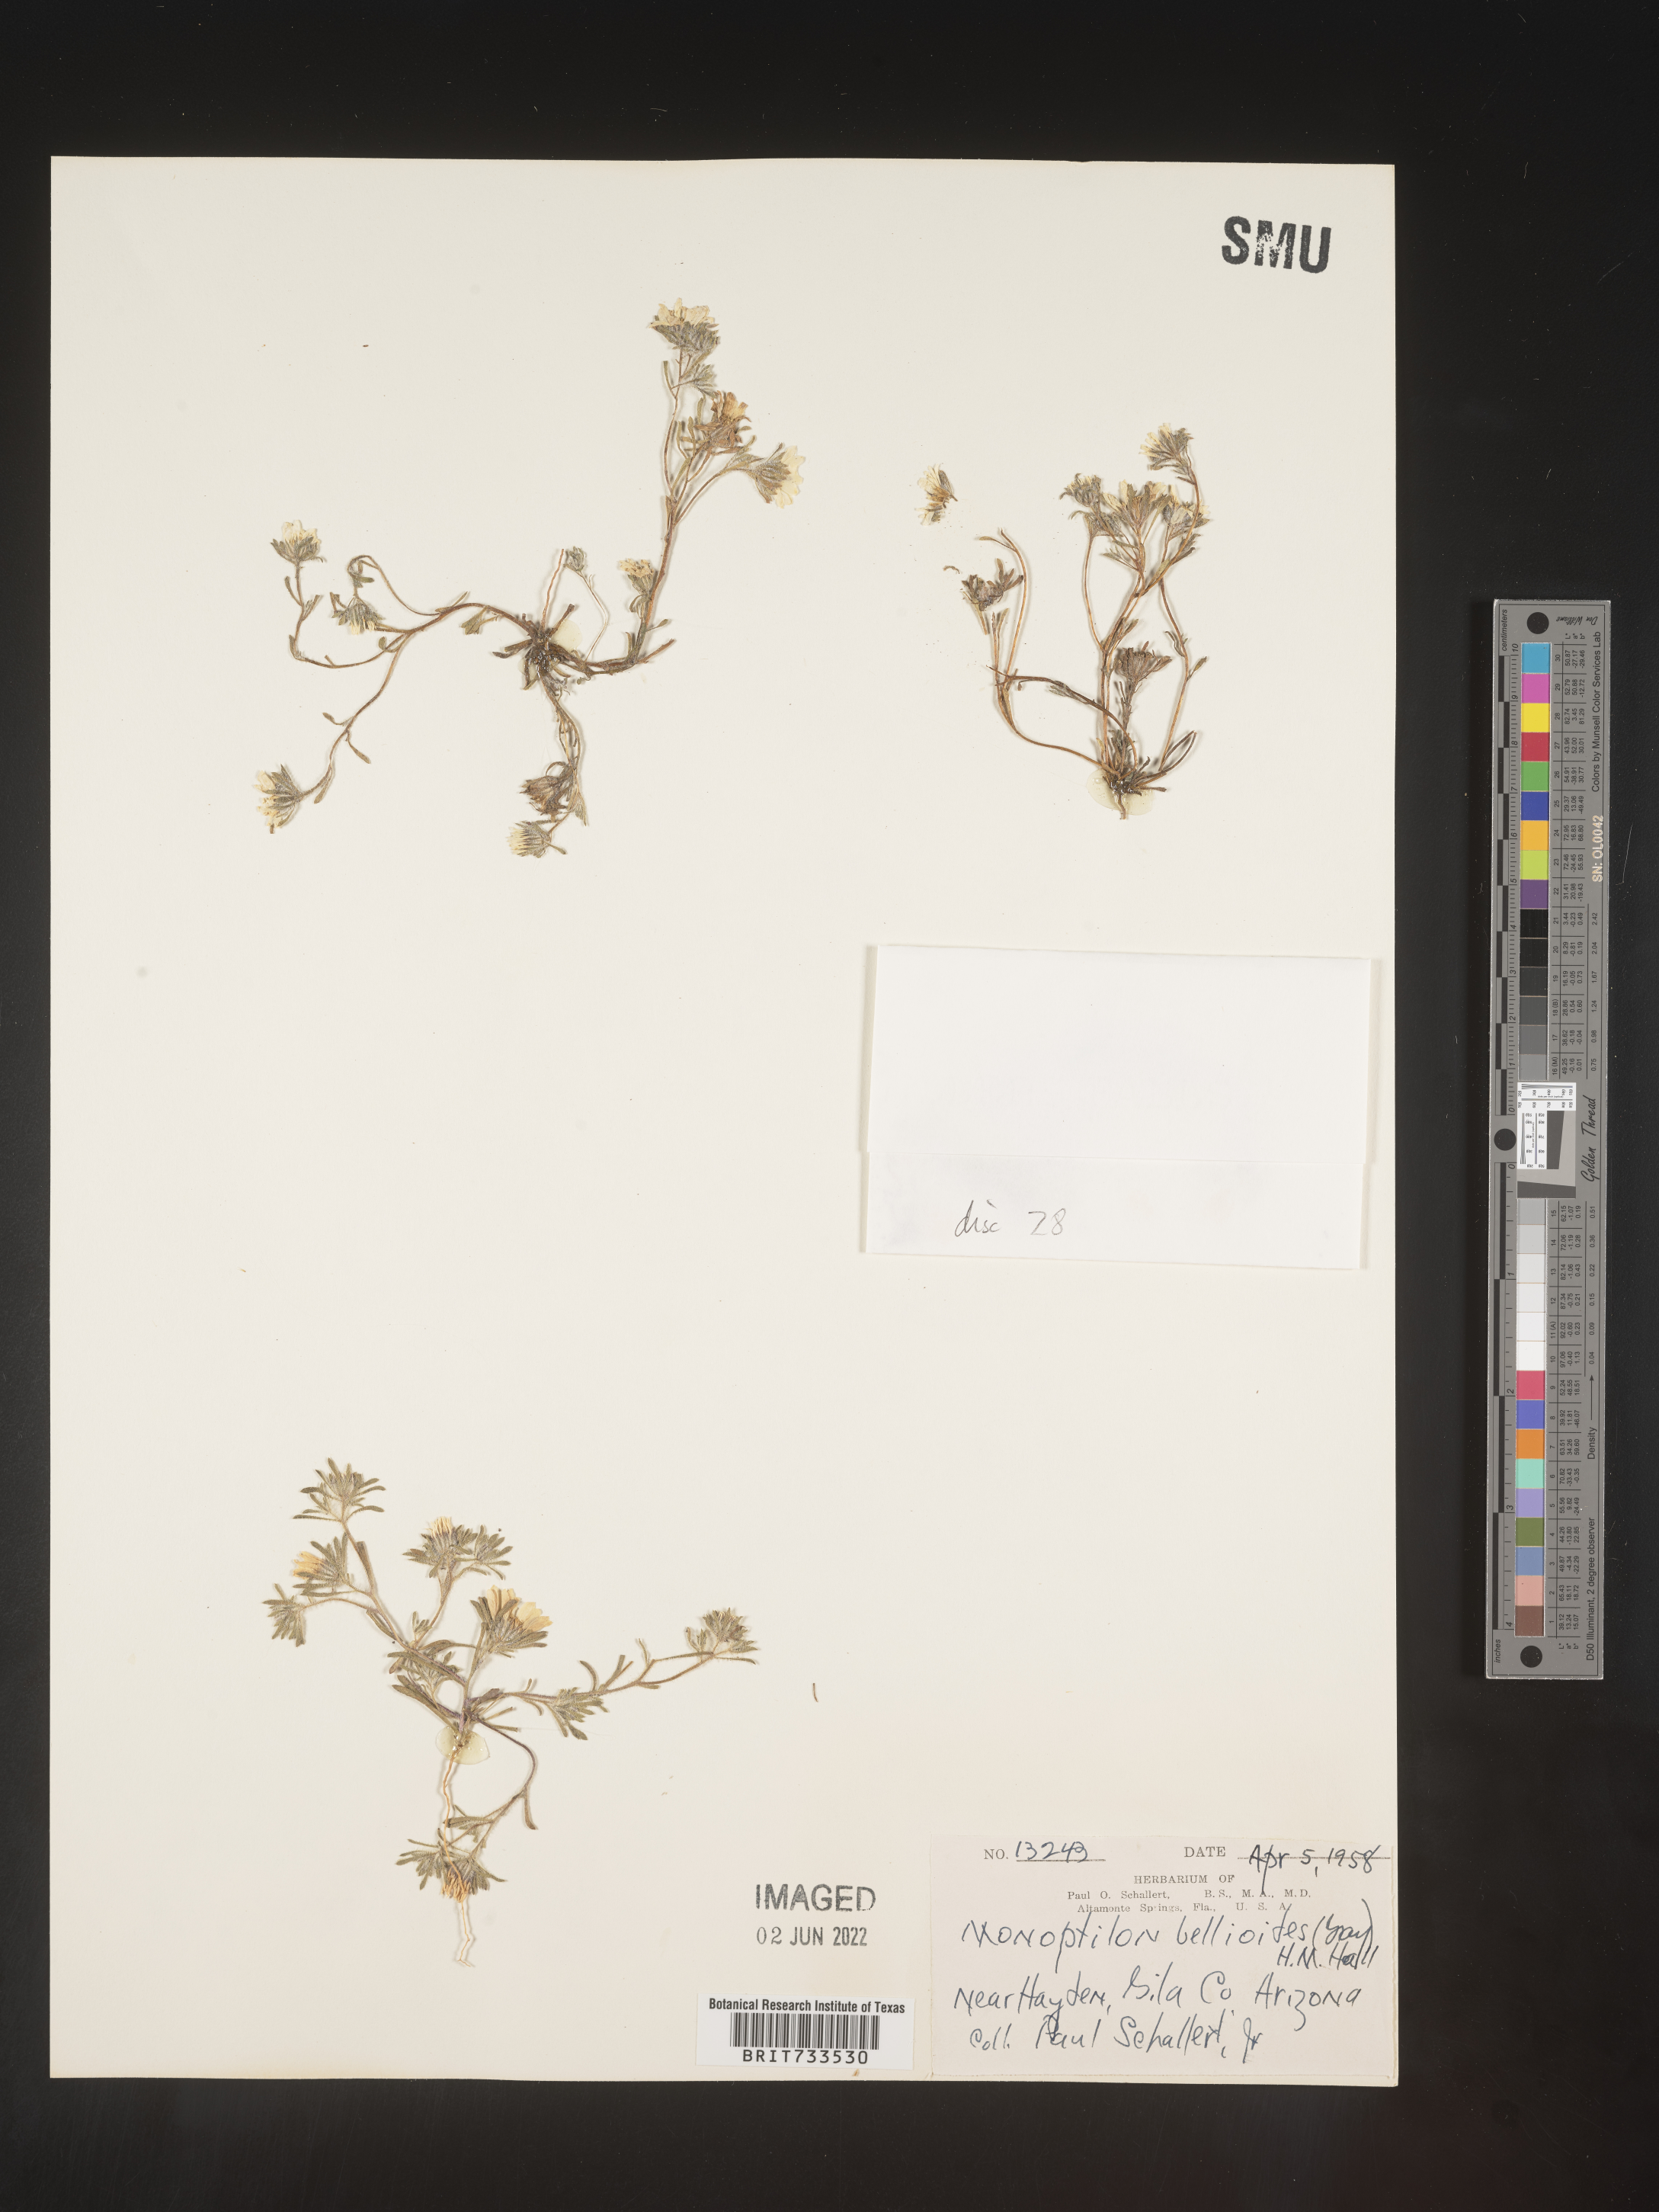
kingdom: Plantae
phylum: Tracheophyta
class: Magnoliopsida
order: Asterales
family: Asteraceae
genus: Monoptilon
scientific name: Monoptilon
